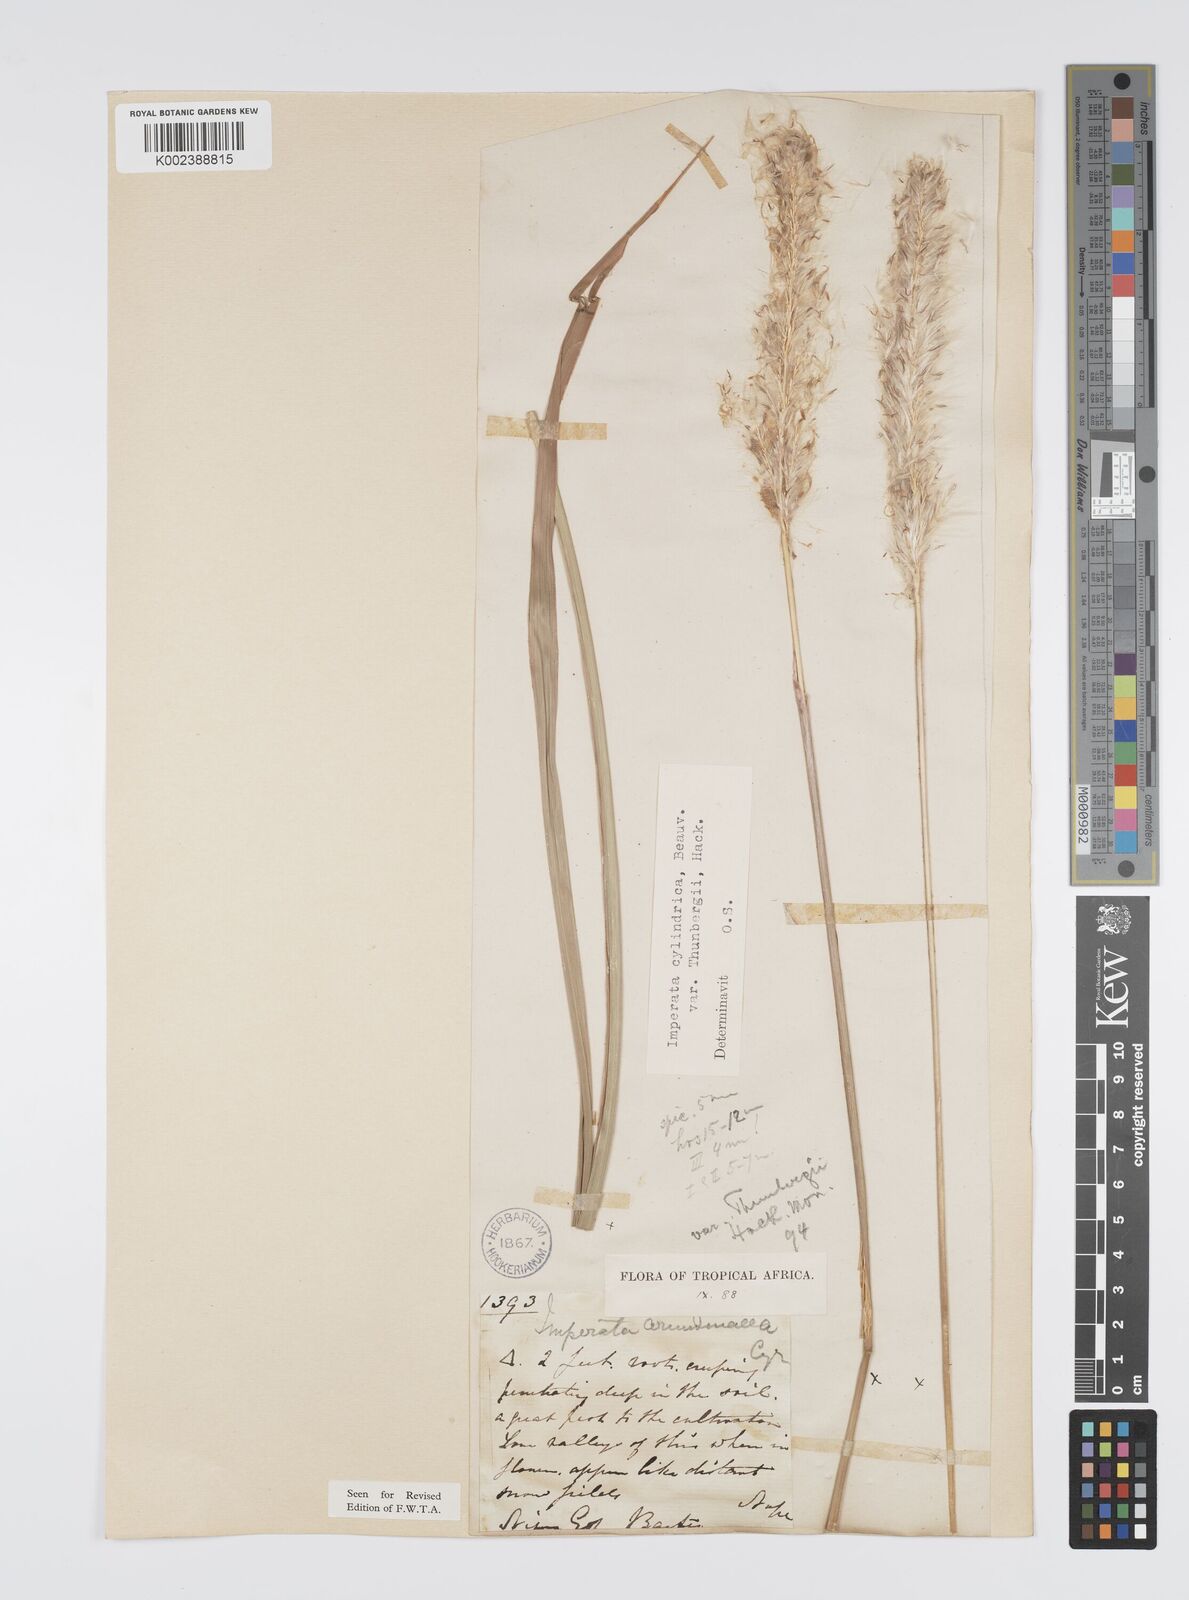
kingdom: Plantae
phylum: Tracheophyta
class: Liliopsida
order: Poales
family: Poaceae
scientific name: Poaceae
